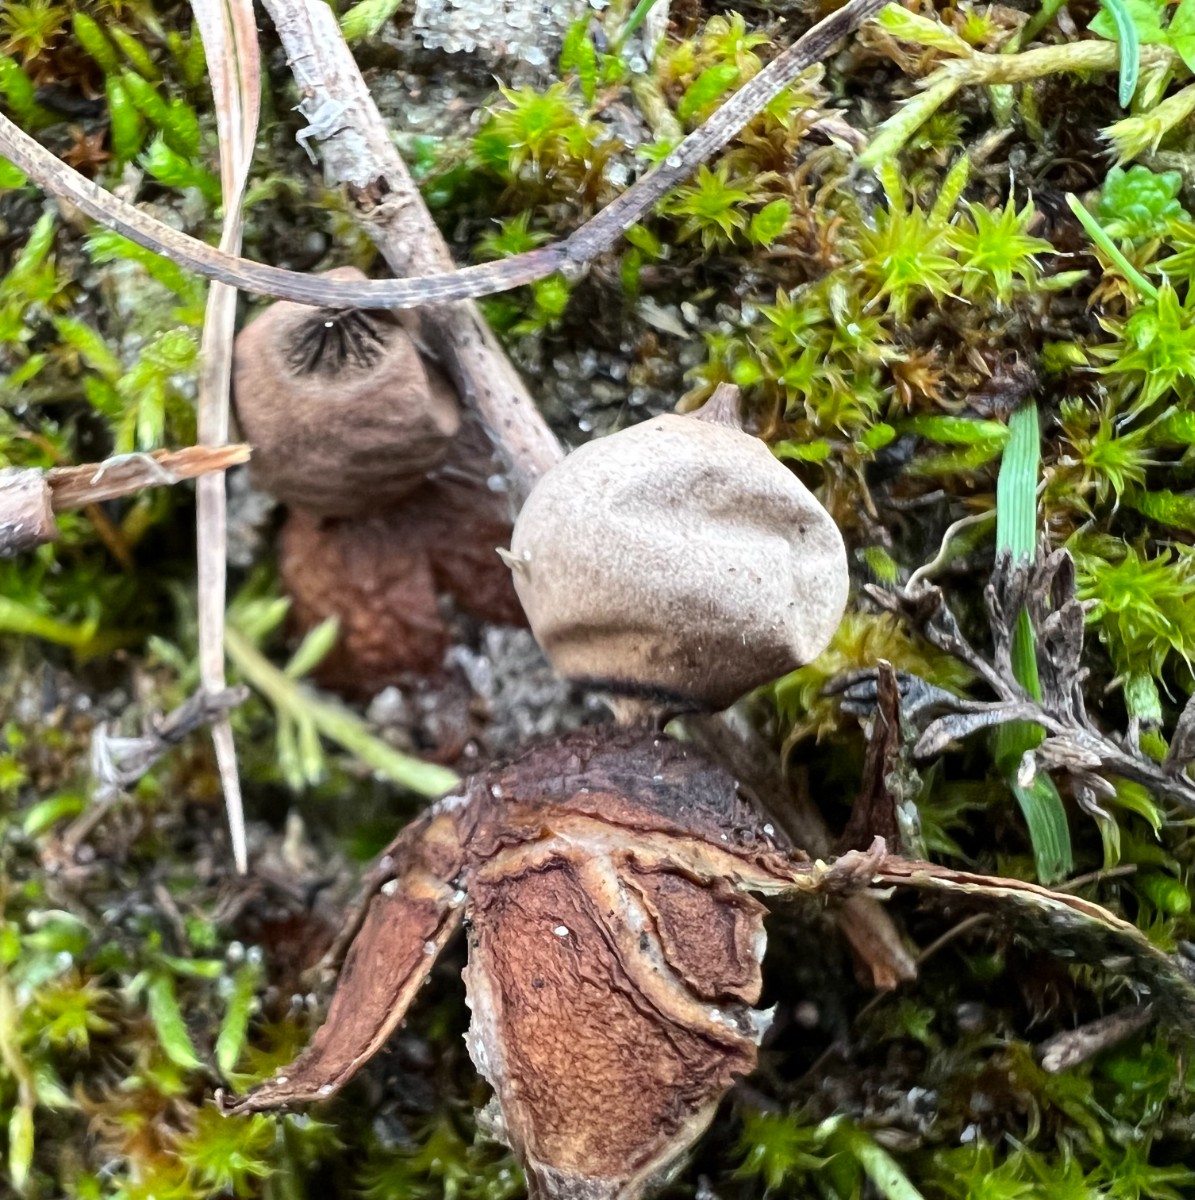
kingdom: Fungi
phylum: Basidiomycota
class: Agaricomycetes
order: Geastrales
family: Geastraceae
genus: Geastrum
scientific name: Geastrum striatum
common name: dværg-stjernebold
